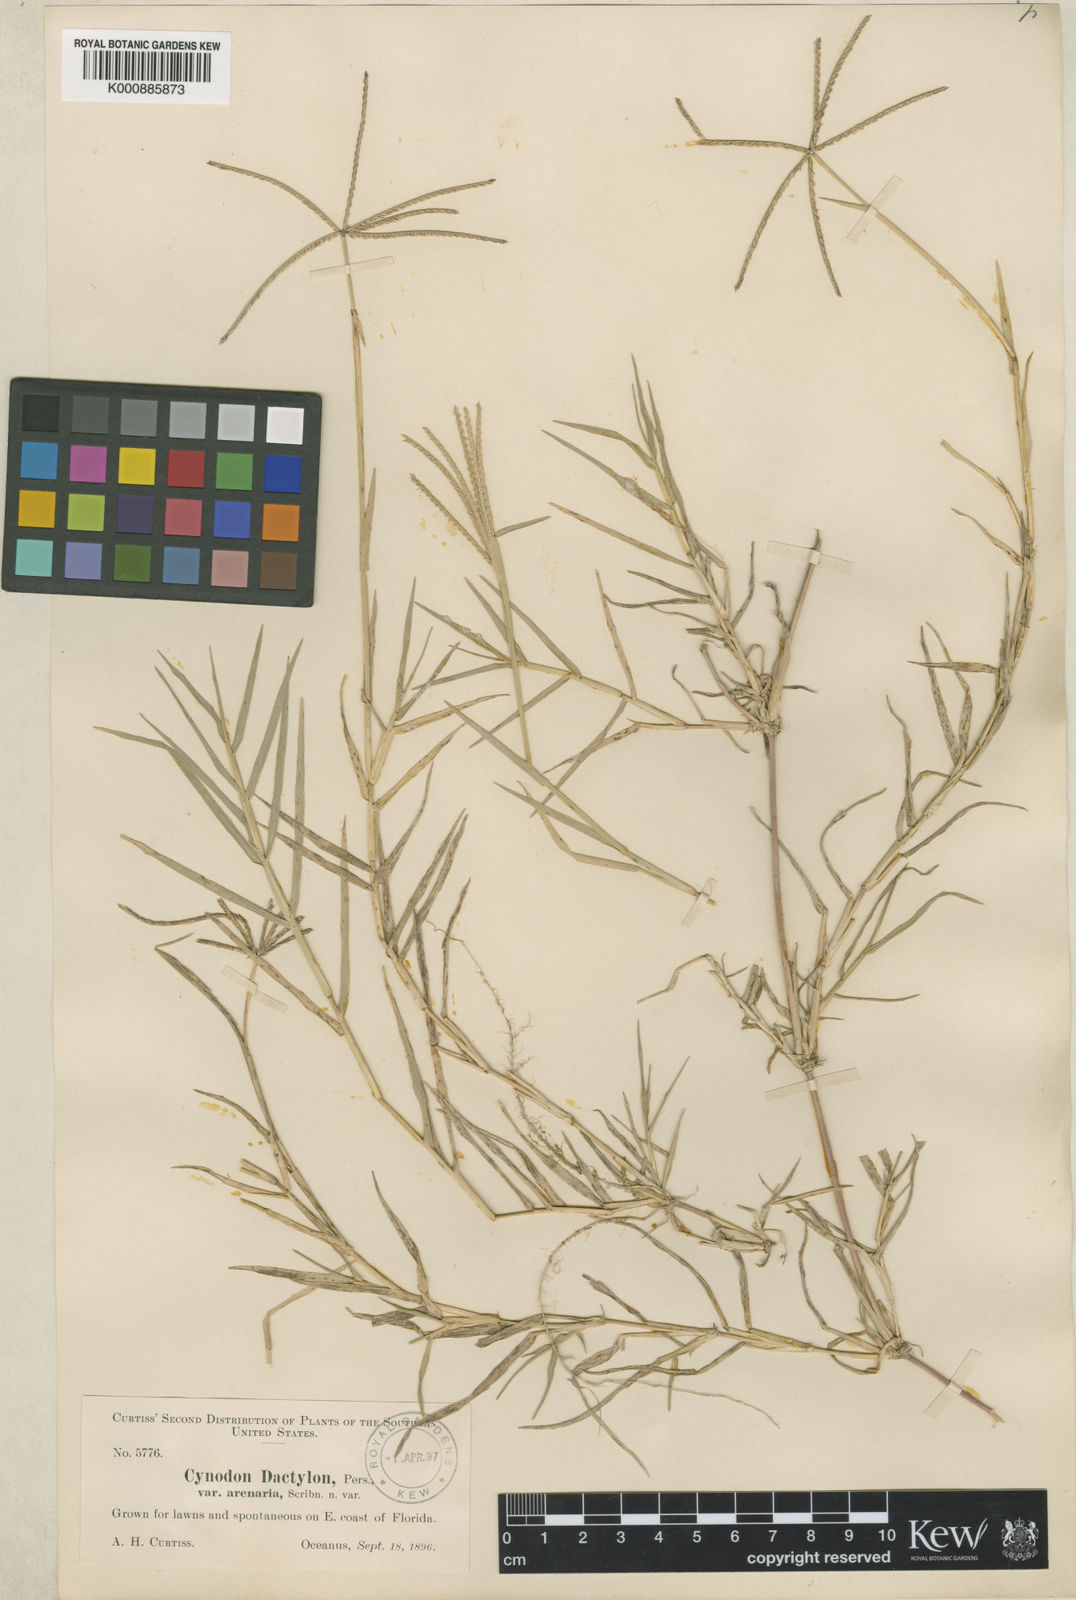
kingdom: Plantae
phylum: Tracheophyta
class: Liliopsida
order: Poales
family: Poaceae
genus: Cynodon
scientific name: Cynodon dactylon
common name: Bermuda grass
